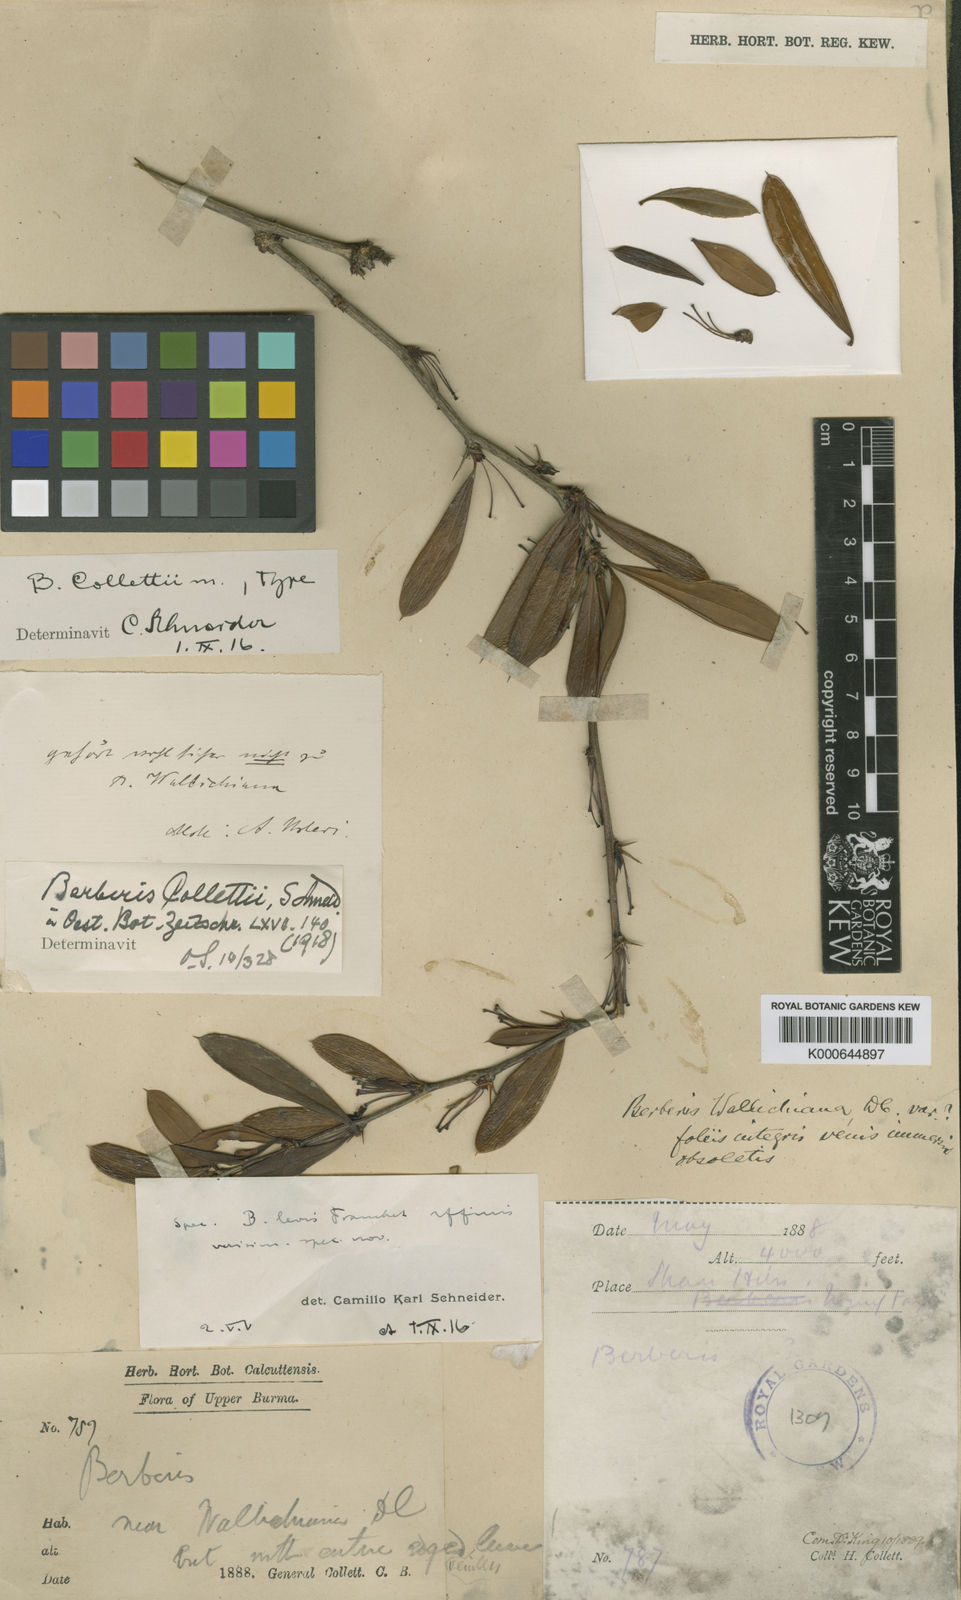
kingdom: Plantae
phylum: Tracheophyta
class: Magnoliopsida
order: Ranunculales
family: Berberidaceae
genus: Berberis
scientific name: Berberis collettii
